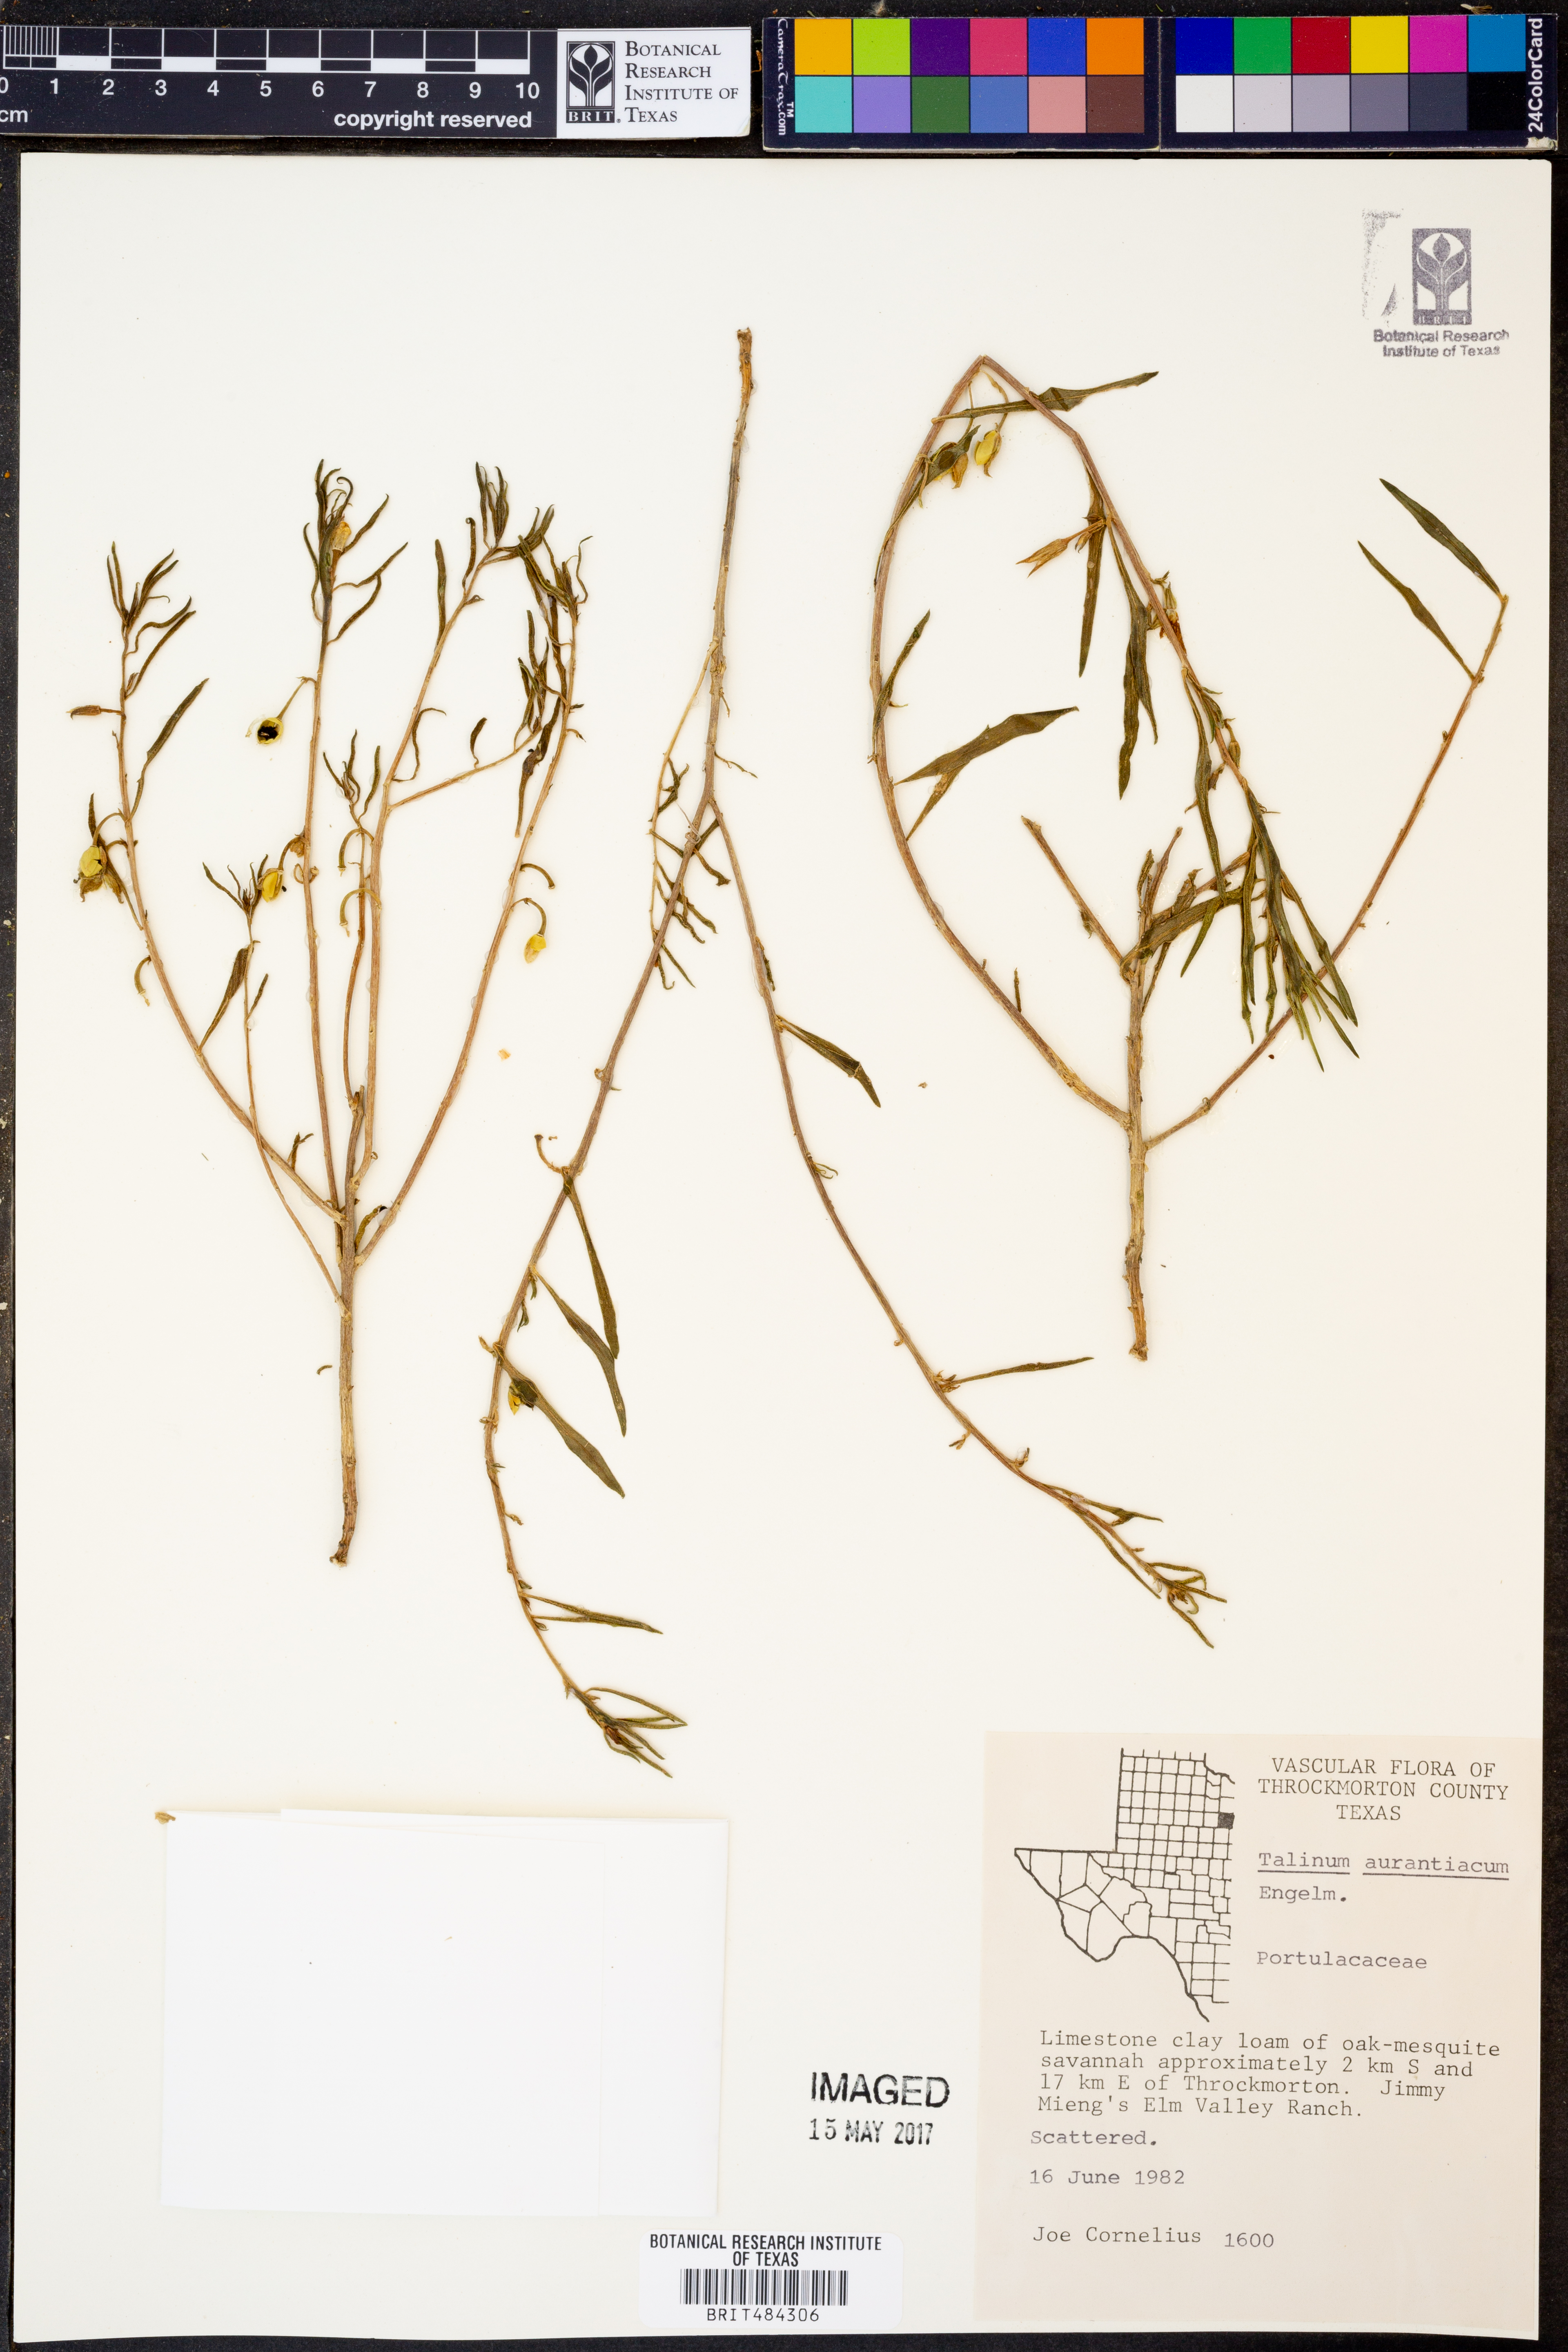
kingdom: Plantae
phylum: Tracheophyta
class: Magnoliopsida
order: Caryophyllales
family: Montiaceae
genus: Phemeranthus
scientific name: Phemeranthus aurantiacus
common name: Orange fameflower
